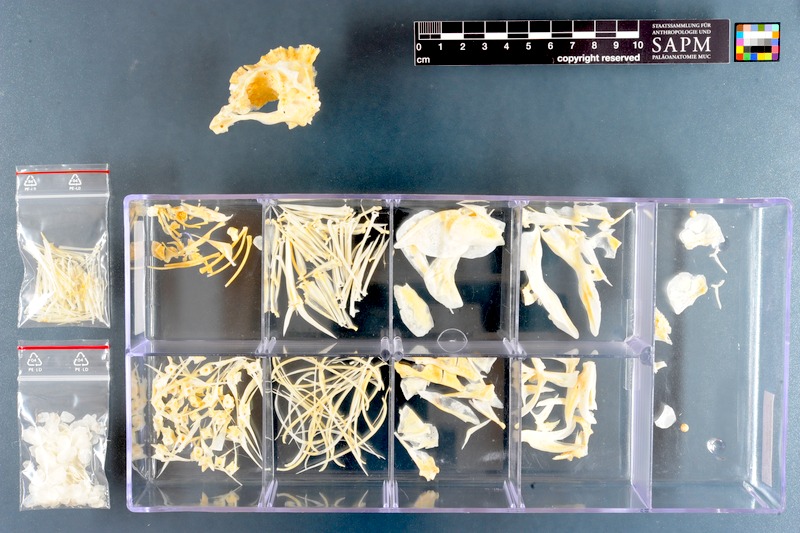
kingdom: Animalia
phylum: Chordata
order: Perciformes
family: Cichlidae
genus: Cyphotilapia
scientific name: Cyphotilapia frontosa
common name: Humphead cichlid
